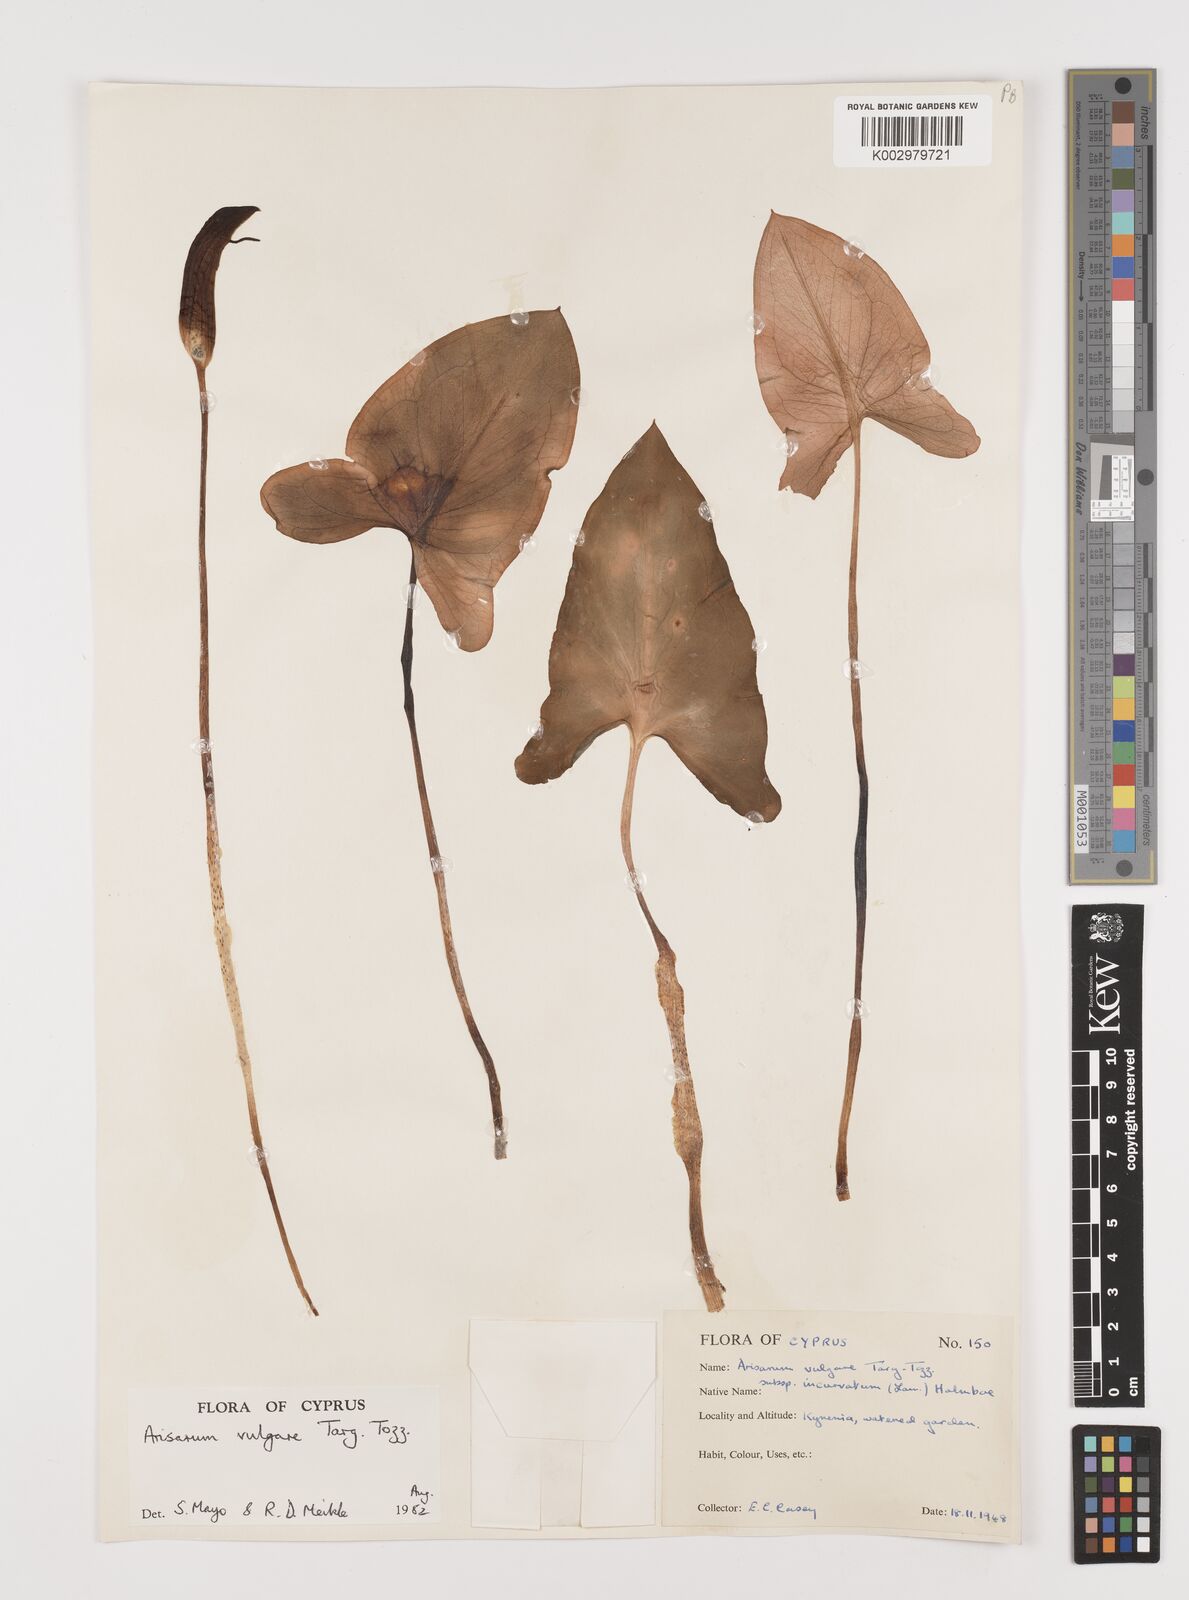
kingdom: Plantae
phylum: Tracheophyta
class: Liliopsida
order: Alismatales
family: Araceae
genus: Arisarum
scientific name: Arisarum vulgare
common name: Common arisarum
